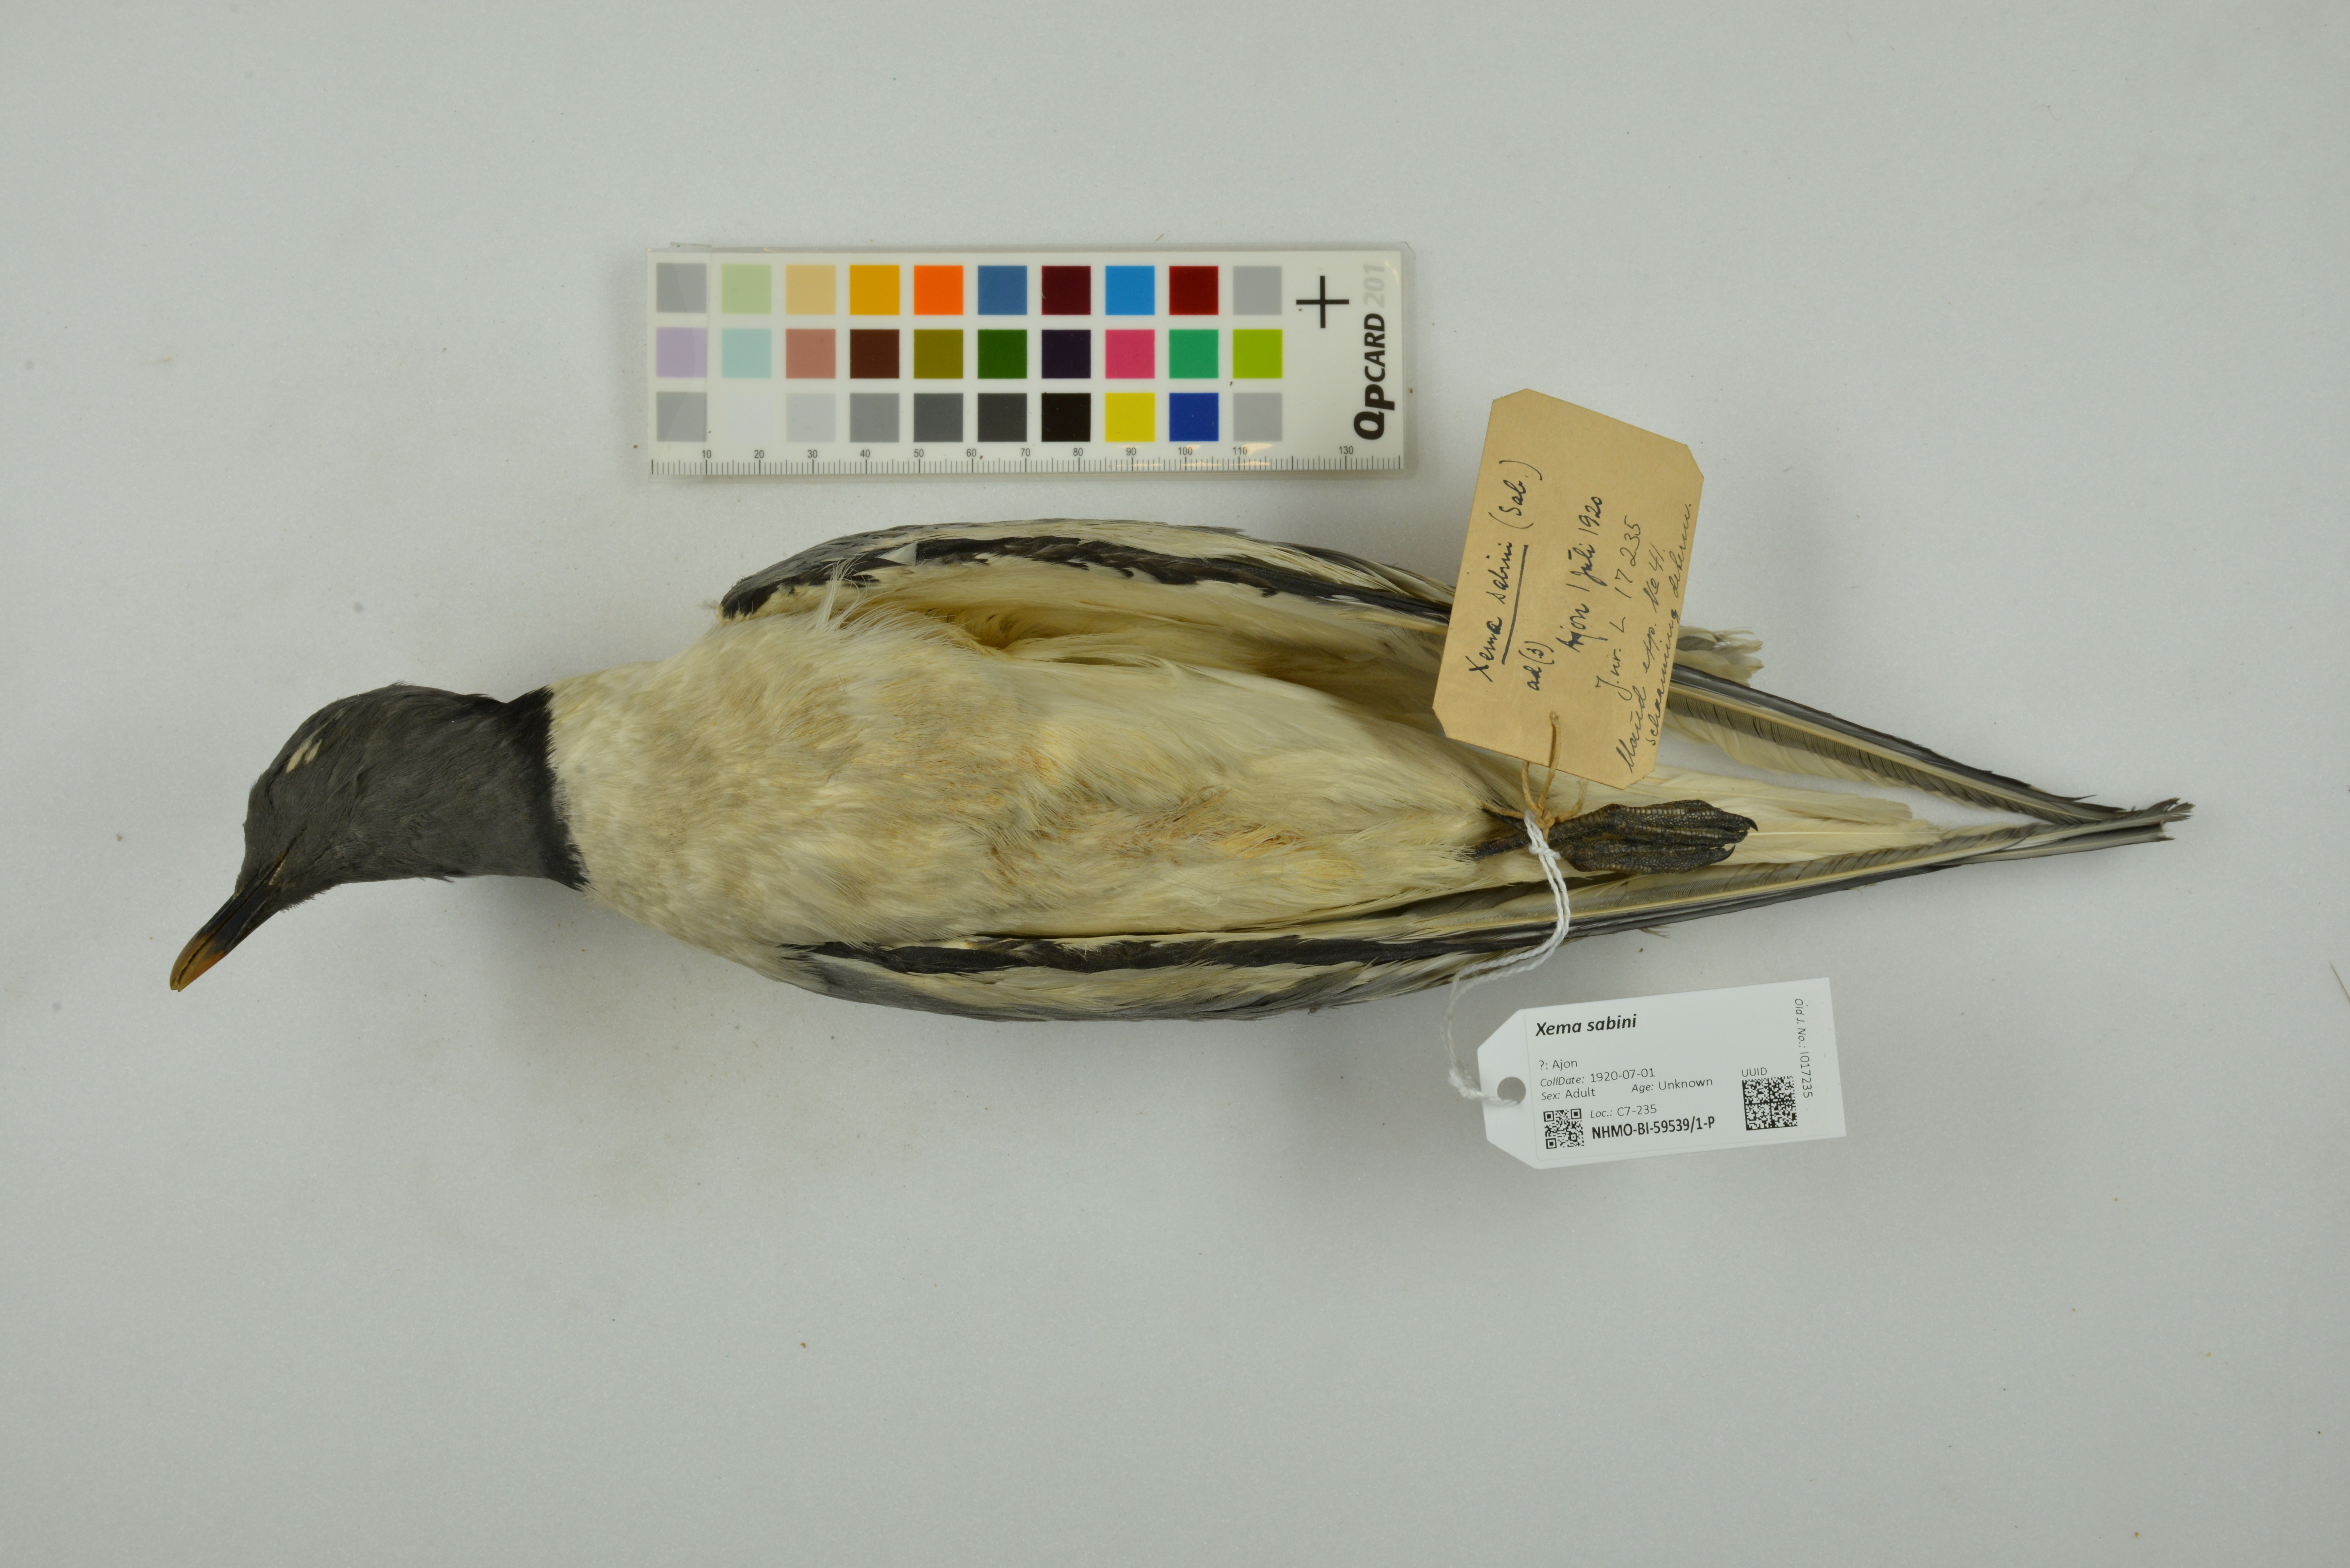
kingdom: Animalia
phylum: Chordata
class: Aves
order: Charadriiformes
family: Laridae
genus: Xema
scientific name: Xema sabini
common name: Sabine's gull
